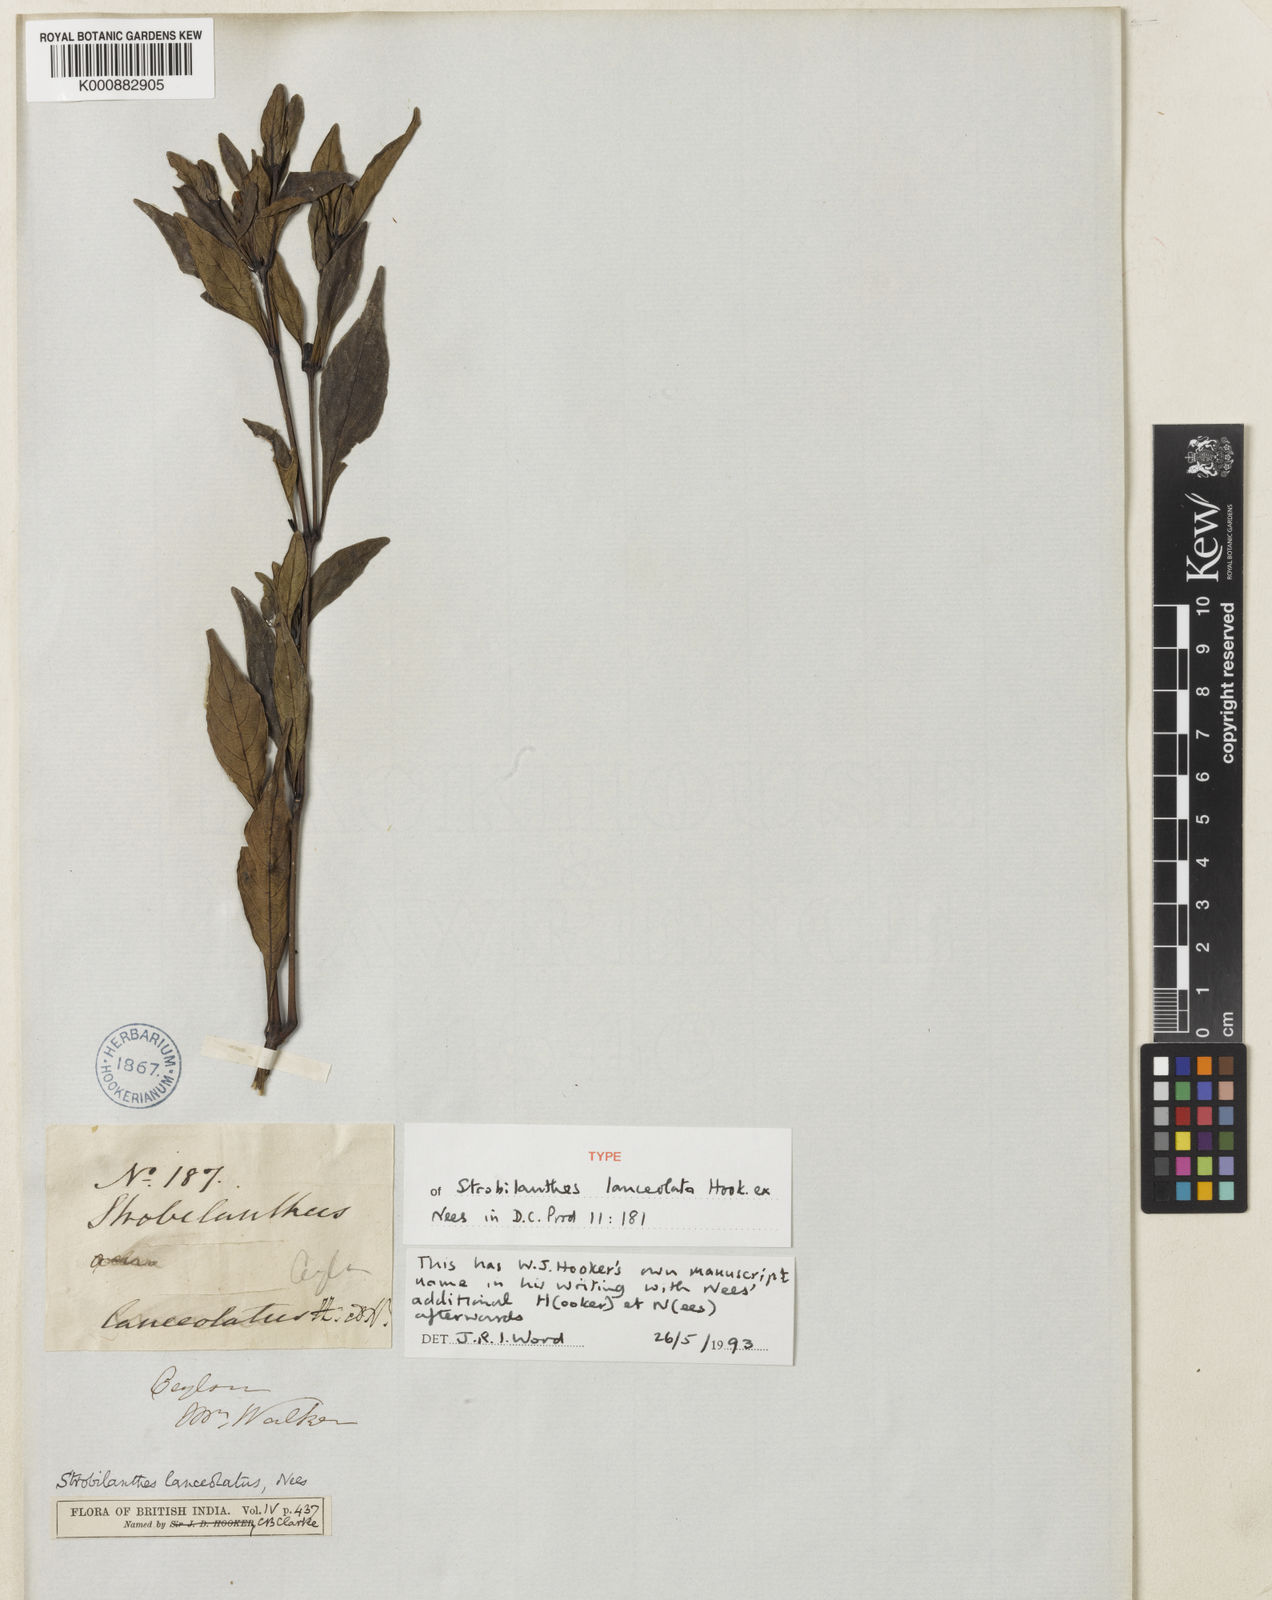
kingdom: Plantae
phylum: Tracheophyta
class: Magnoliopsida
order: Lamiales
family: Acanthaceae
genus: Strobilanthes
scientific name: Strobilanthes adenophora
